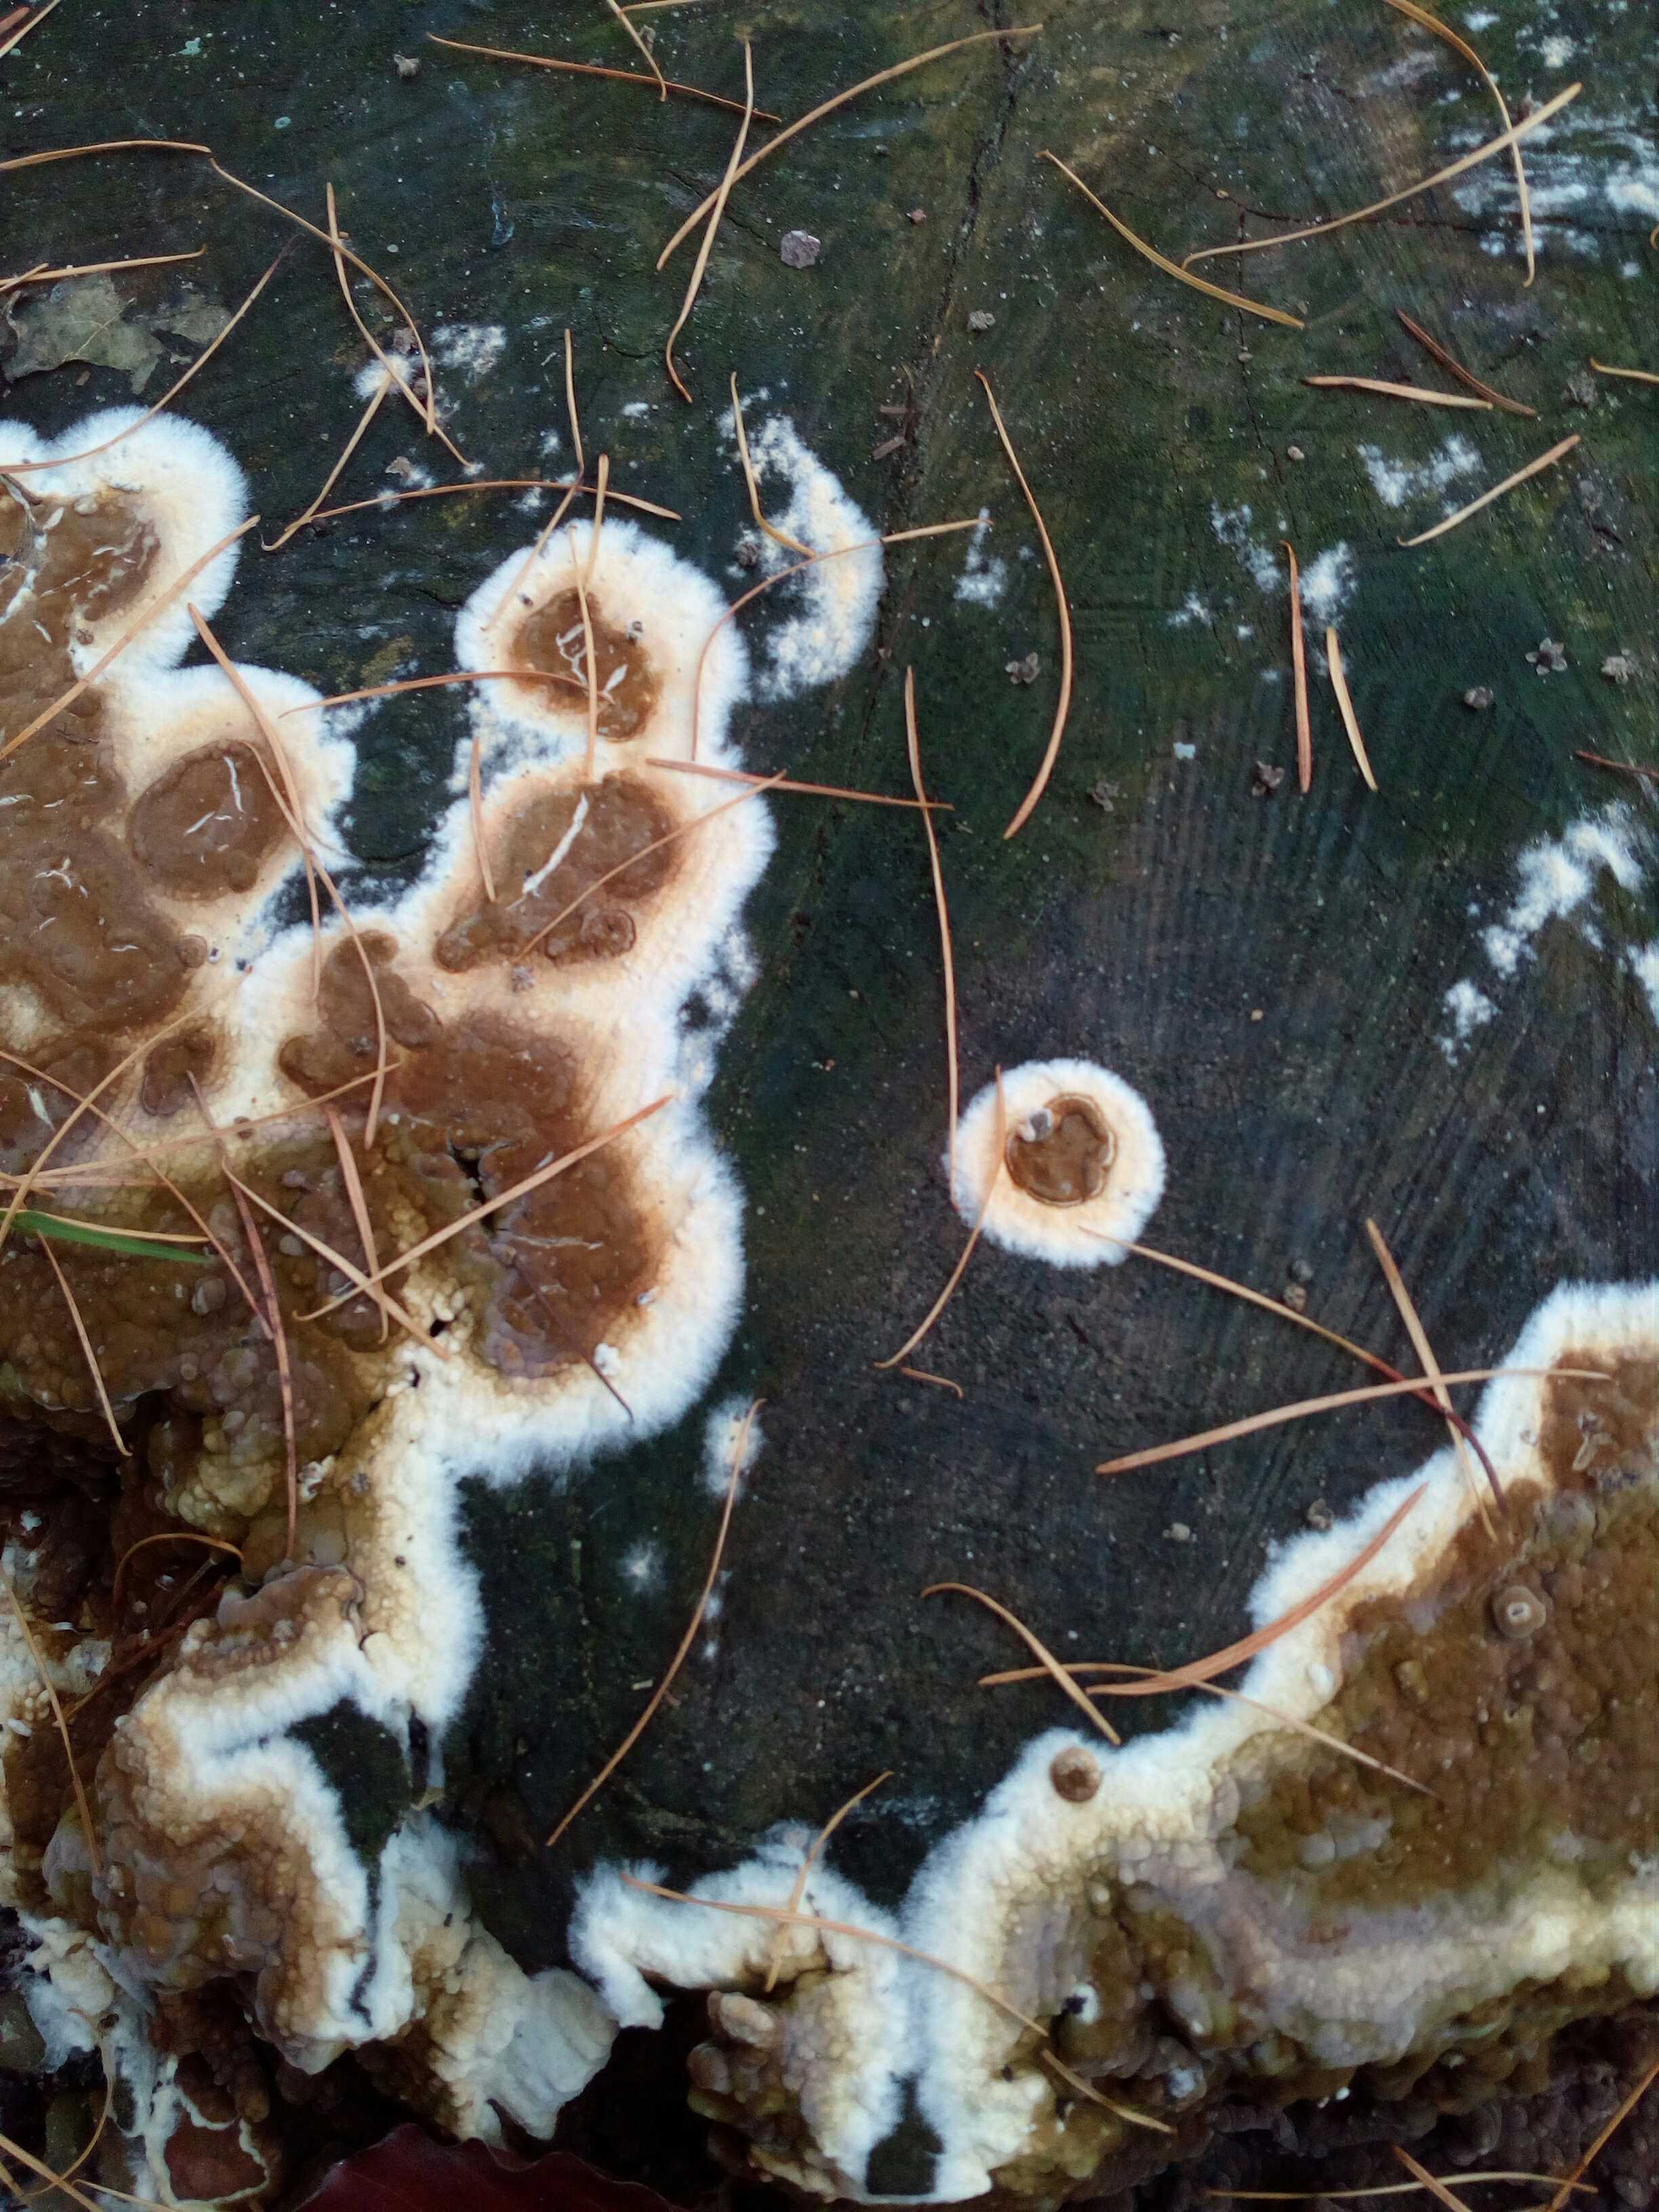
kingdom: Fungi
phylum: Basidiomycota
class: Agaricomycetes
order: Boletales
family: Coniophoraceae
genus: Coniophora
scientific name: Coniophora puteana
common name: gul tømmersvamp
